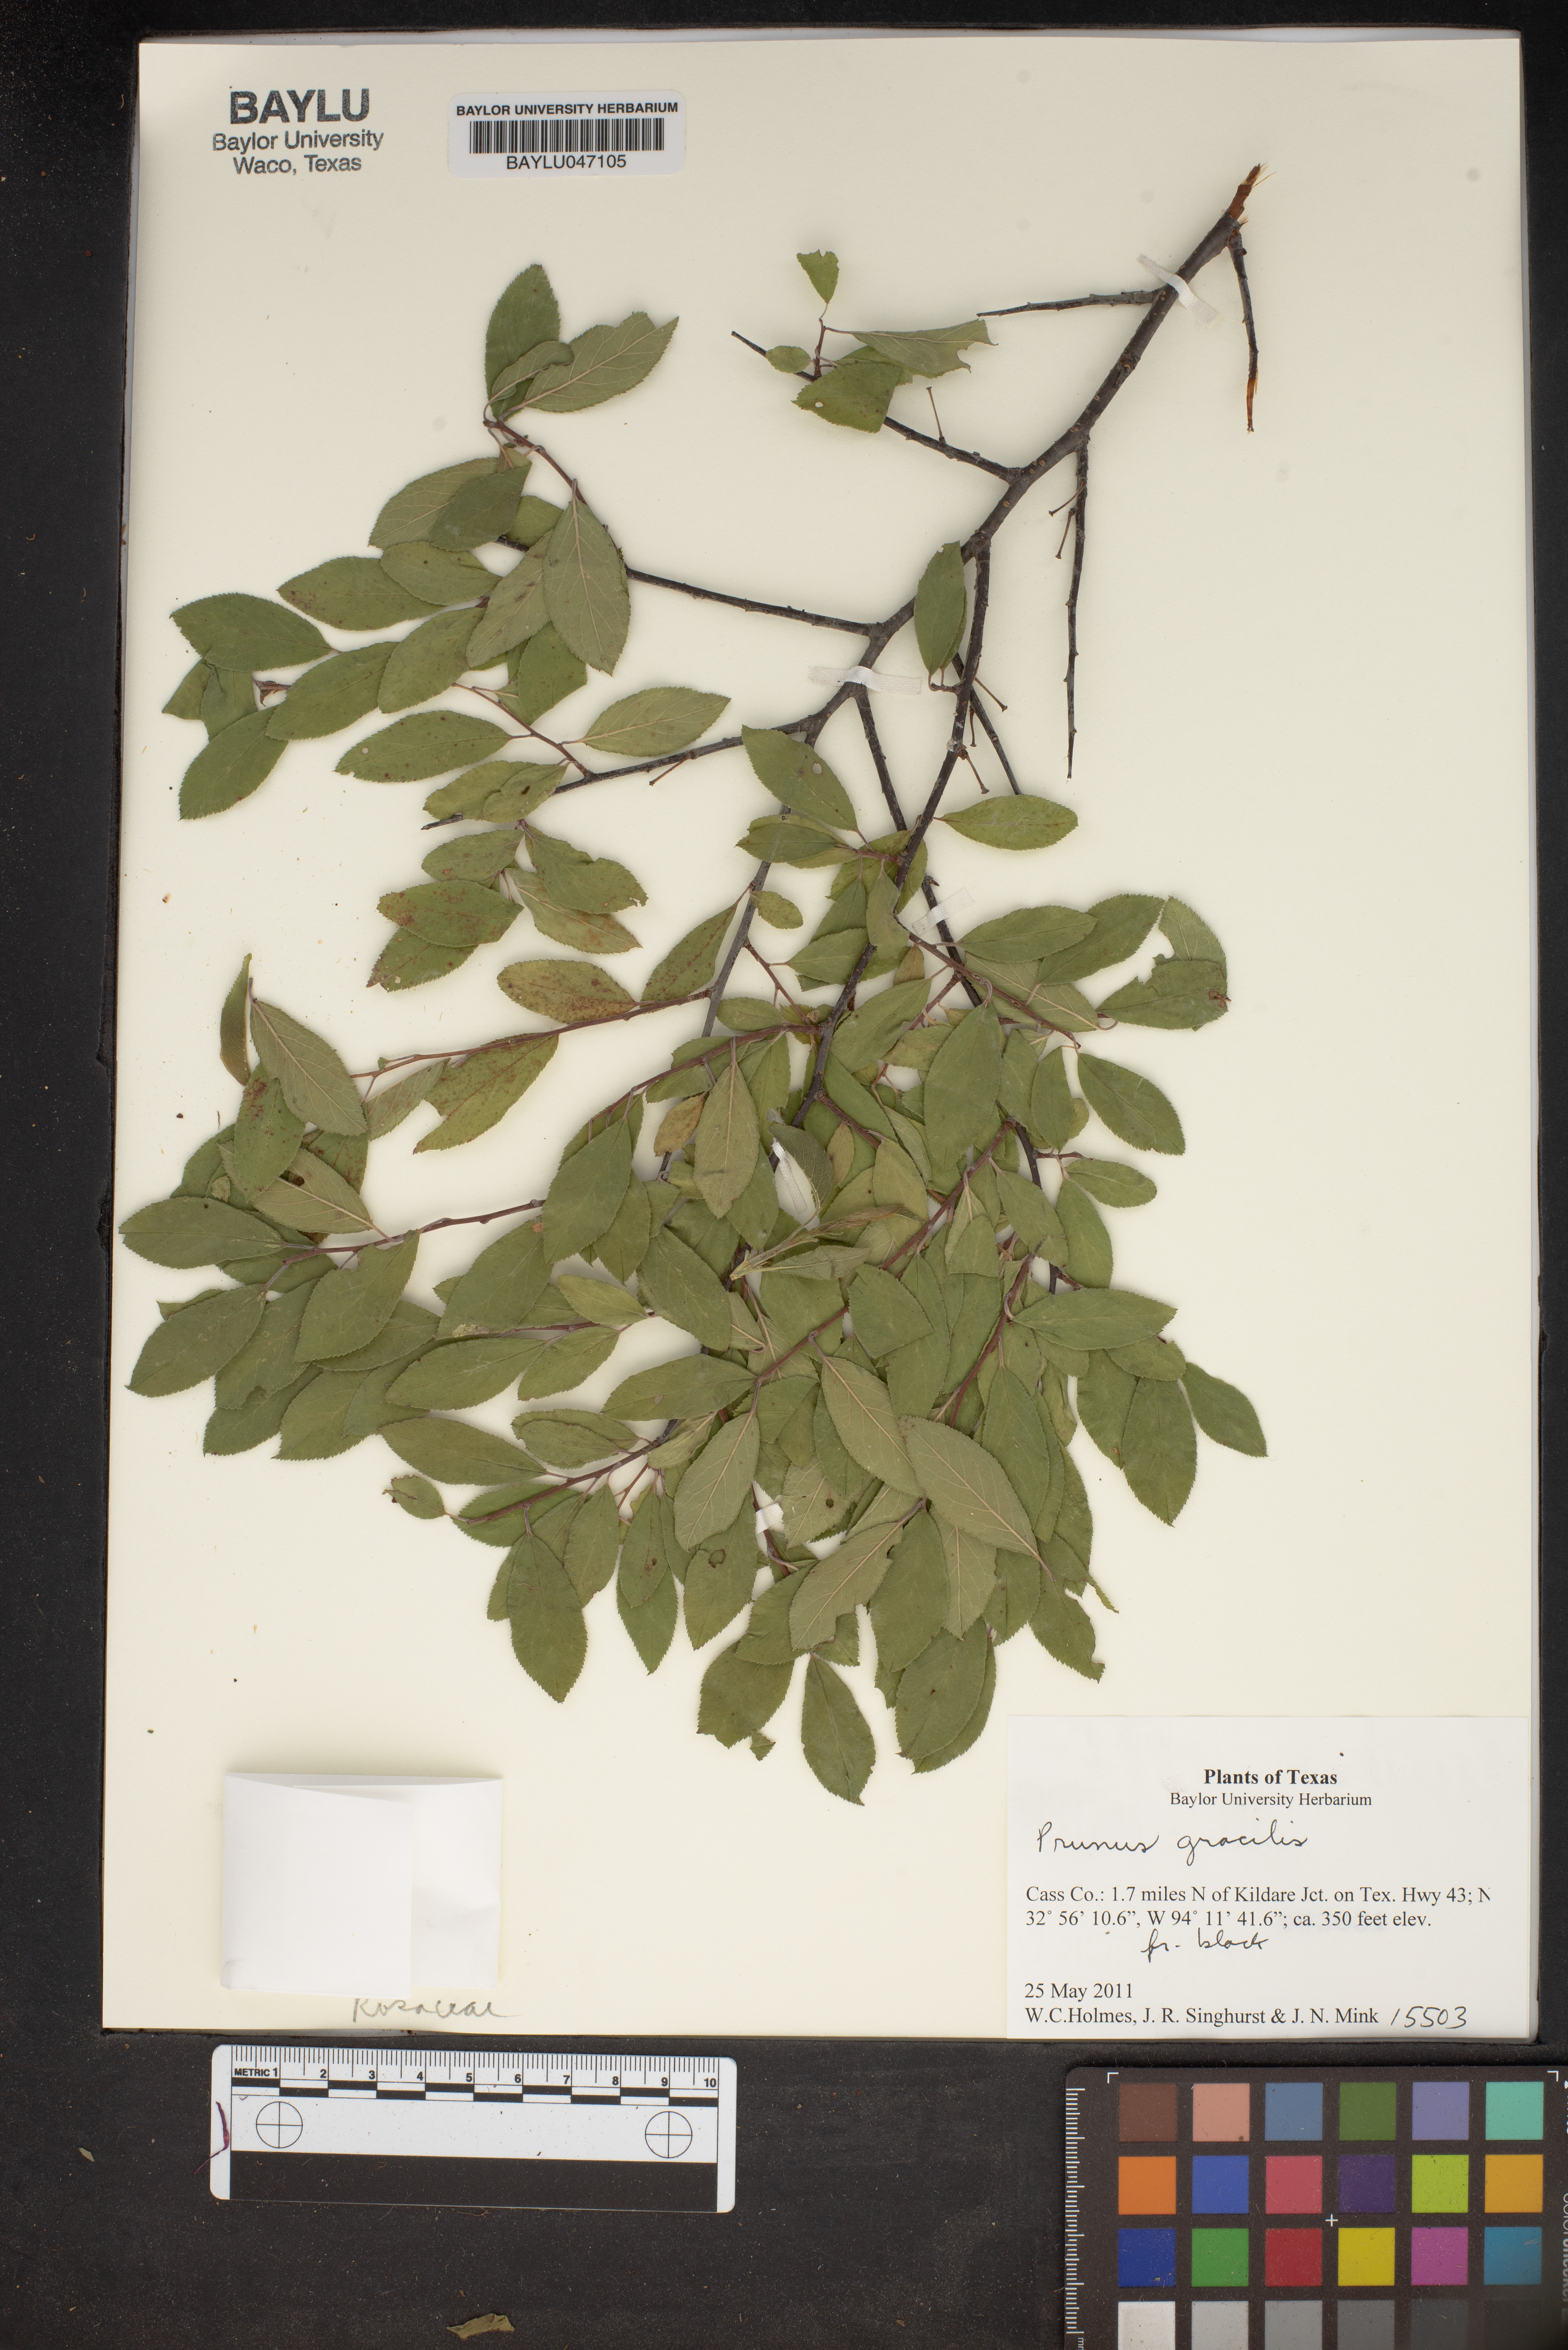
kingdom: Plantae
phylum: Tracheophyta
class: Magnoliopsida
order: Rosales
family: Rosaceae
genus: Prunus
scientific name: Prunus gracilis
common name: Oklahoma plum
